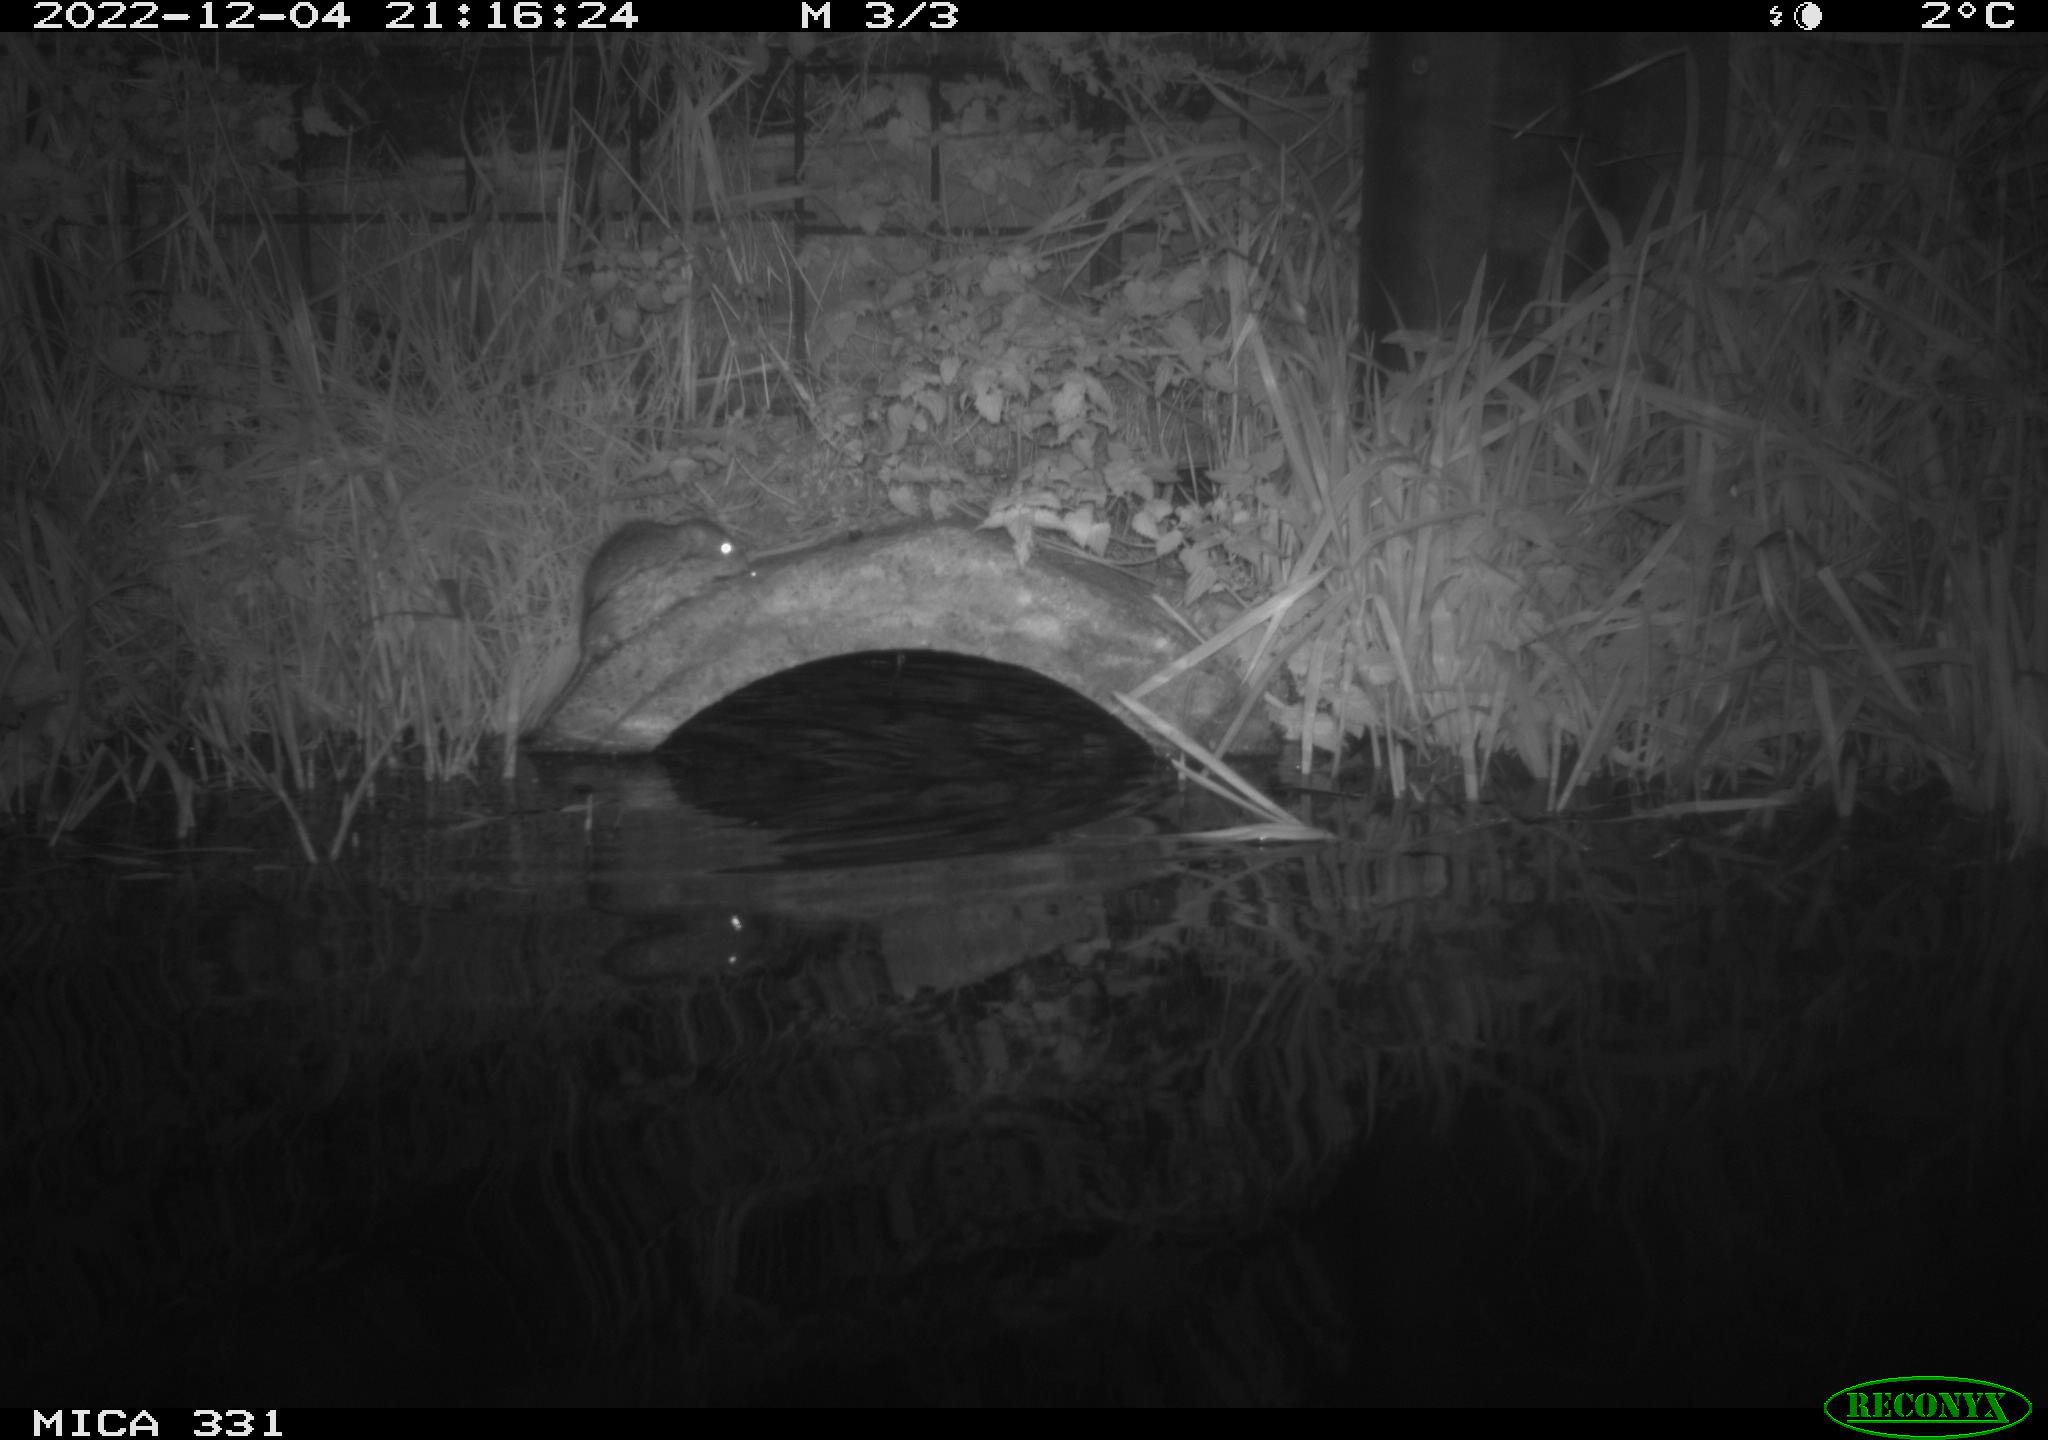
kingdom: Animalia
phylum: Chordata
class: Mammalia
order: Rodentia
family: Muridae
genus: Rattus
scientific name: Rattus norvegicus
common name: Brown rat
